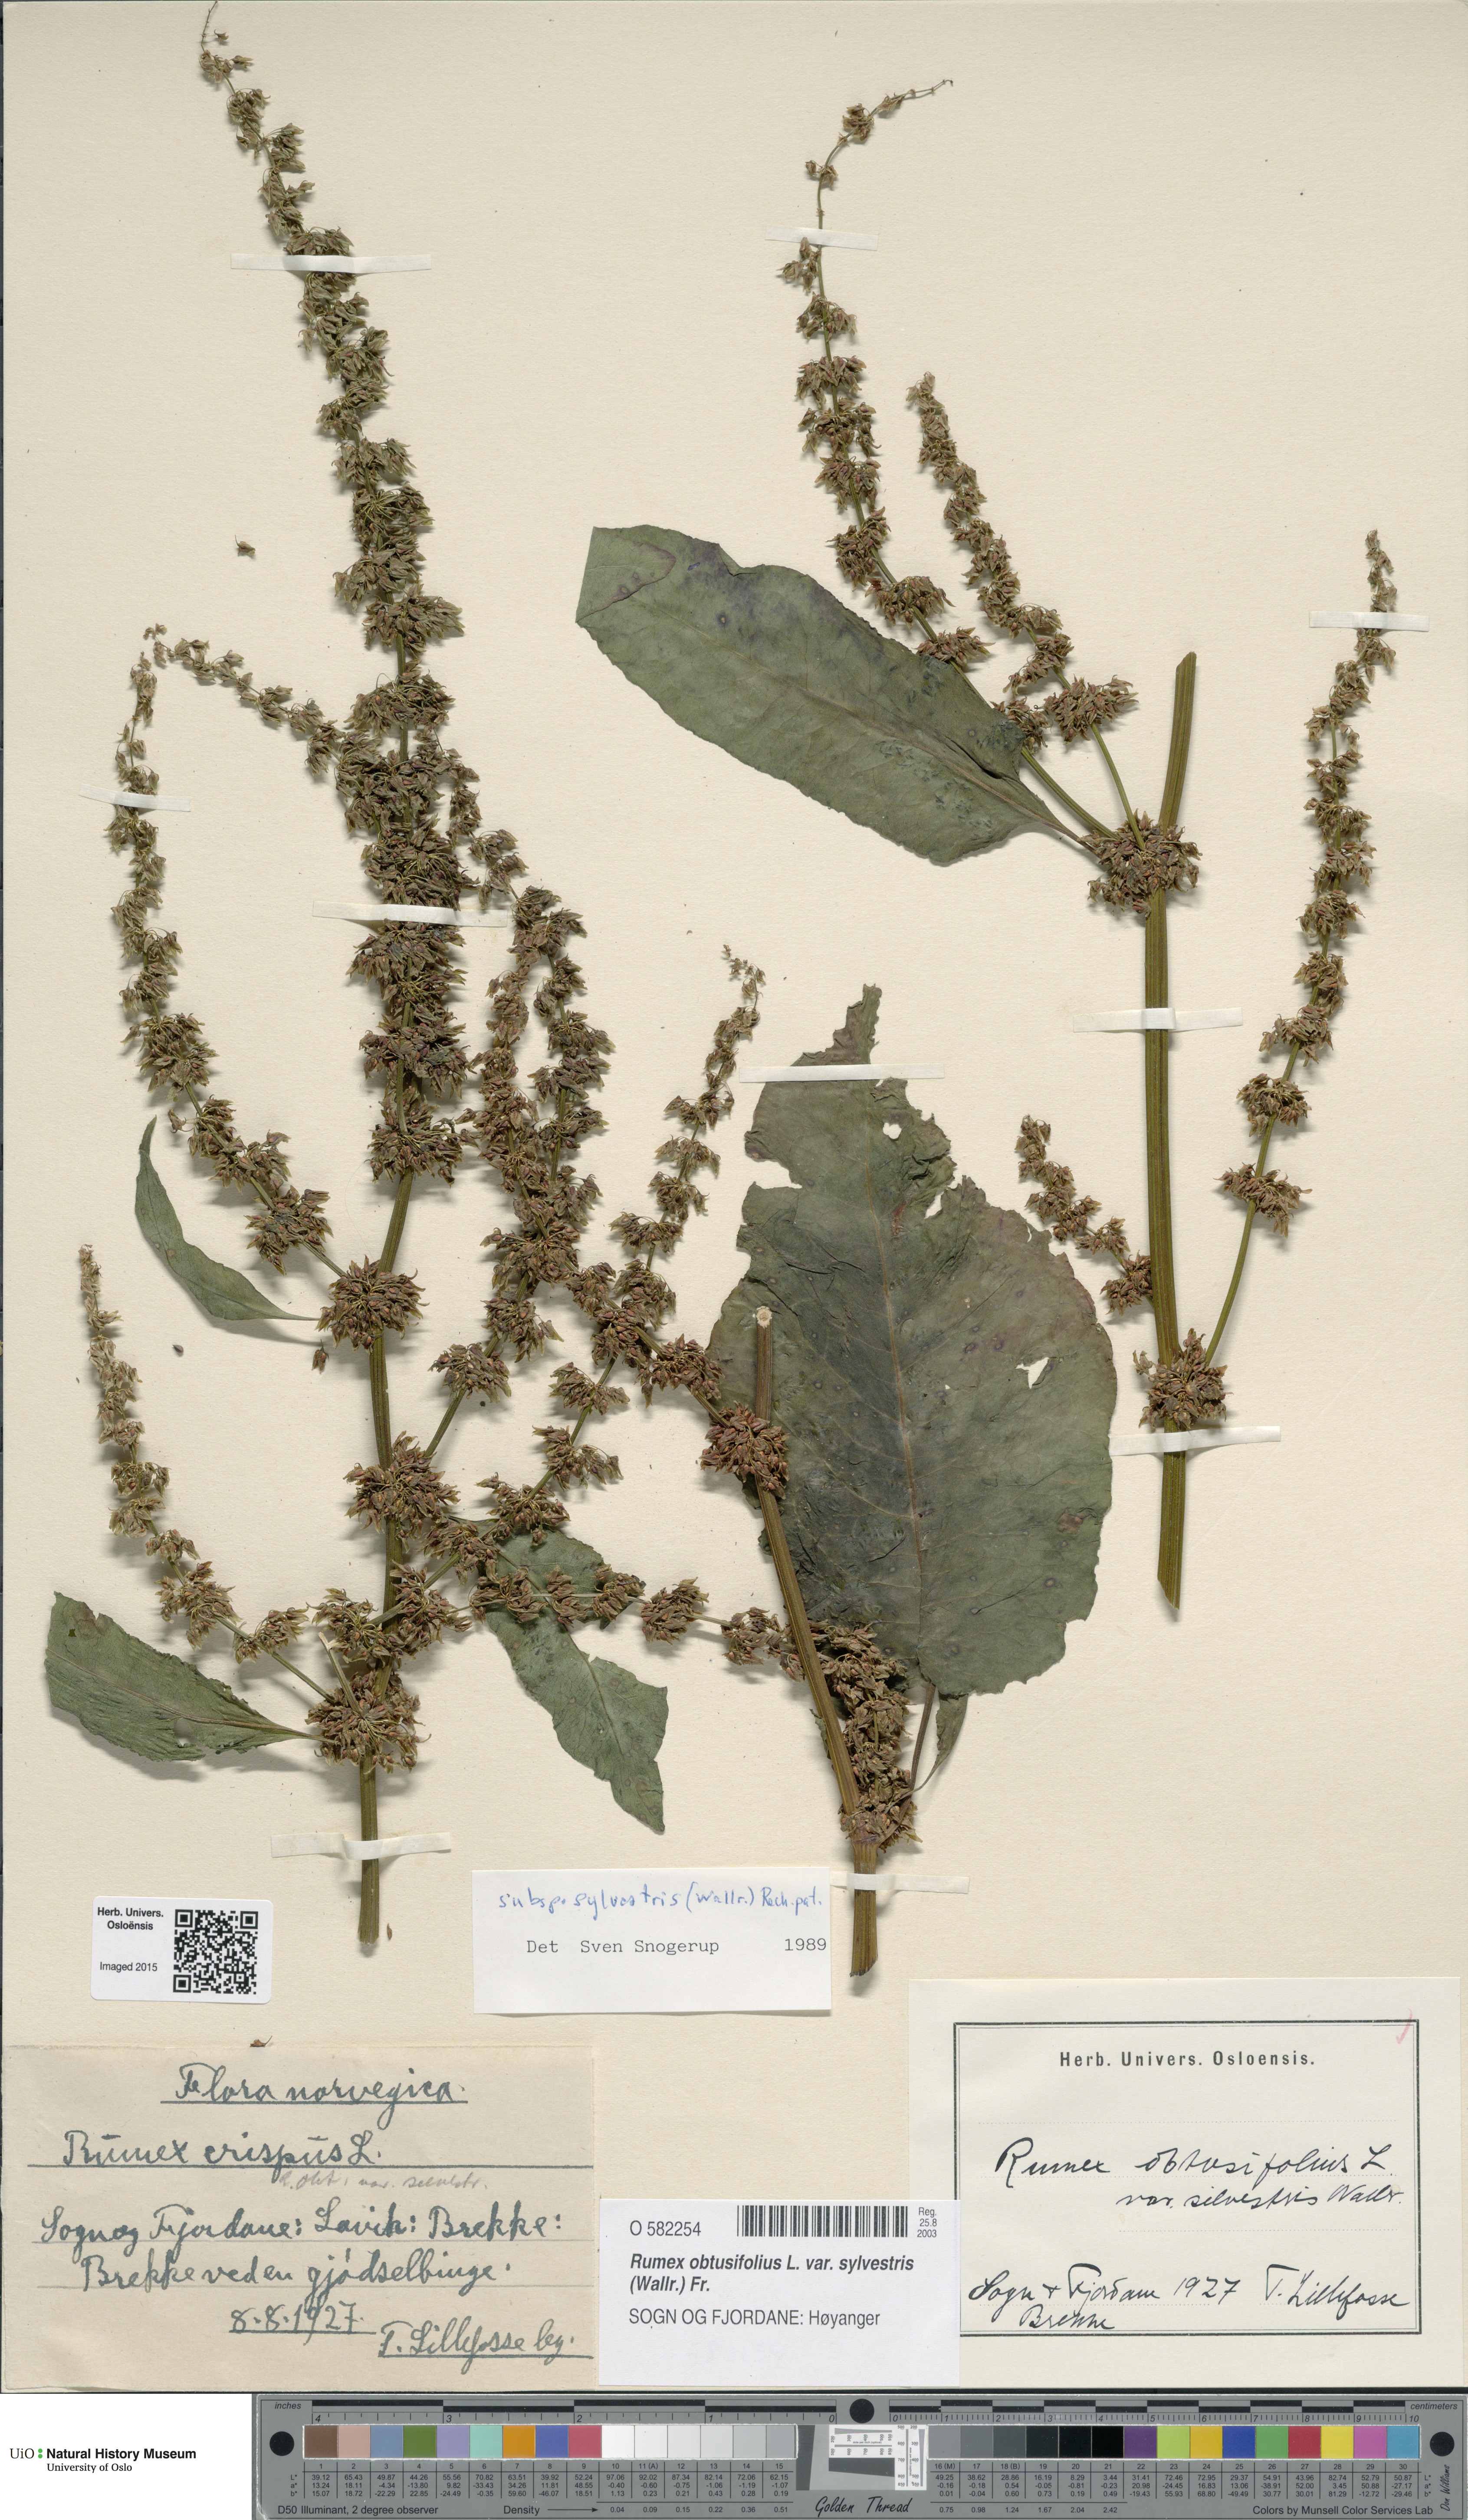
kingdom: Plantae
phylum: Tracheophyta
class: Magnoliopsida
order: Caryophyllales
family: Polygonaceae
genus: Rumex
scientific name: Rumex obtusifolius
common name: Bitter dock
